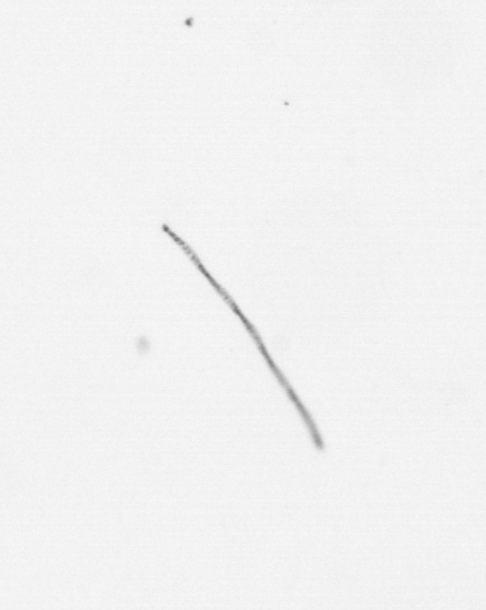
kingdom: Chromista
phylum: Ochrophyta
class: Bacillariophyceae
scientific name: Bacillariophyceae
